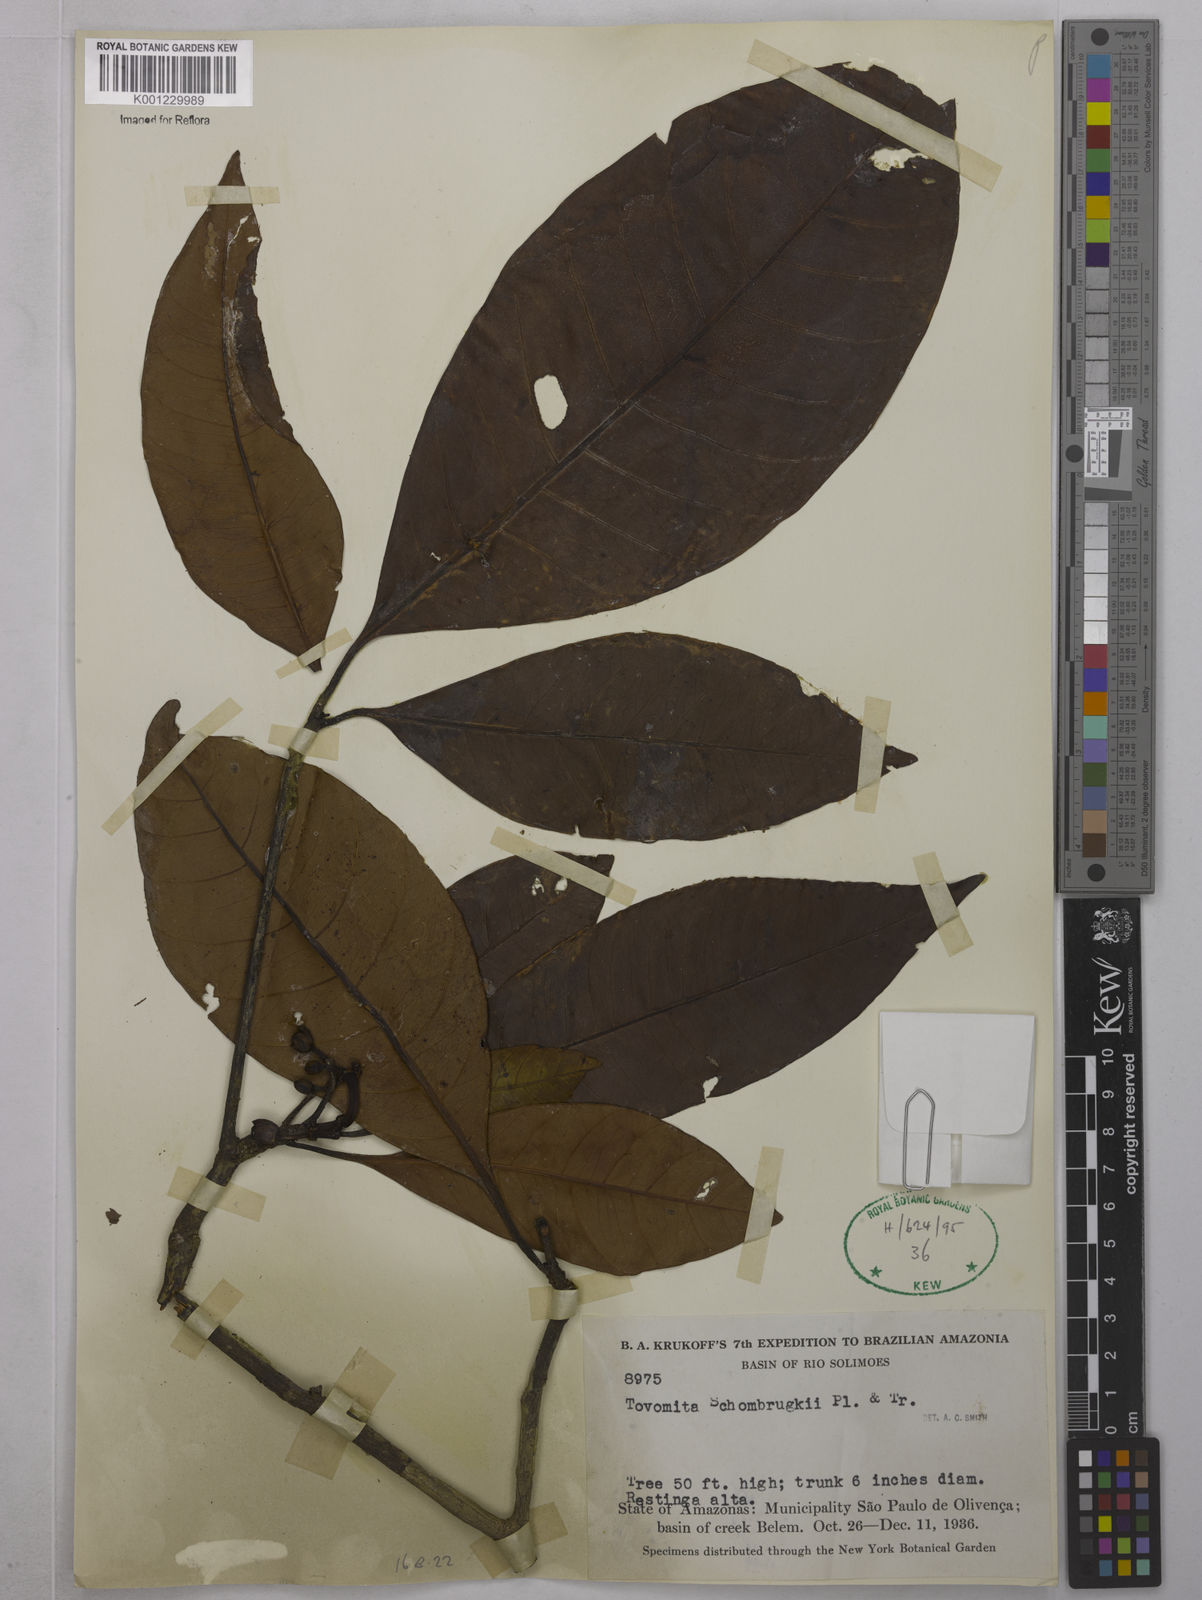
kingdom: Plantae
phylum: Tracheophyta
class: Magnoliopsida
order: Malpighiales
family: Clusiaceae
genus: Tovomita
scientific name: Tovomita schomburgkii
